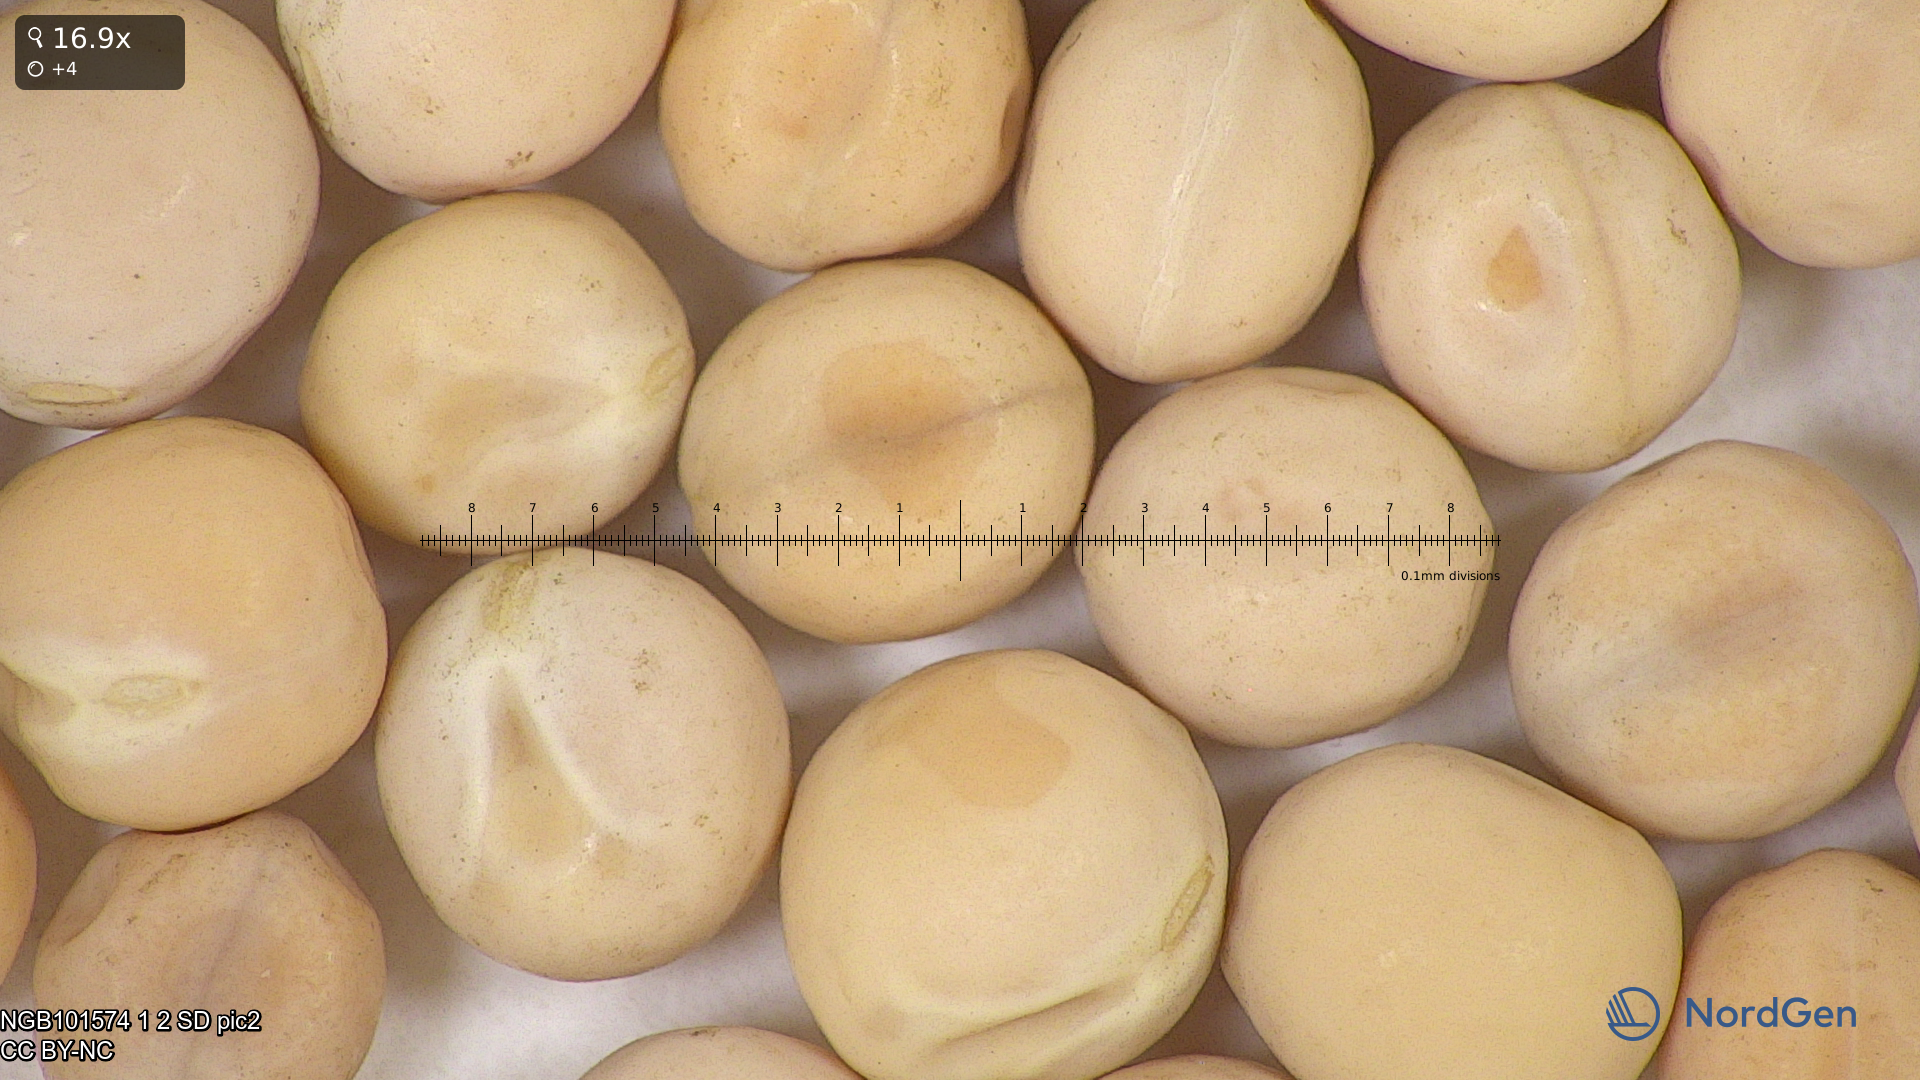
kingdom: Plantae
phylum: Tracheophyta
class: Magnoliopsida
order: Fabales
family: Fabaceae
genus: Lathyrus
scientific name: Lathyrus oleraceus
